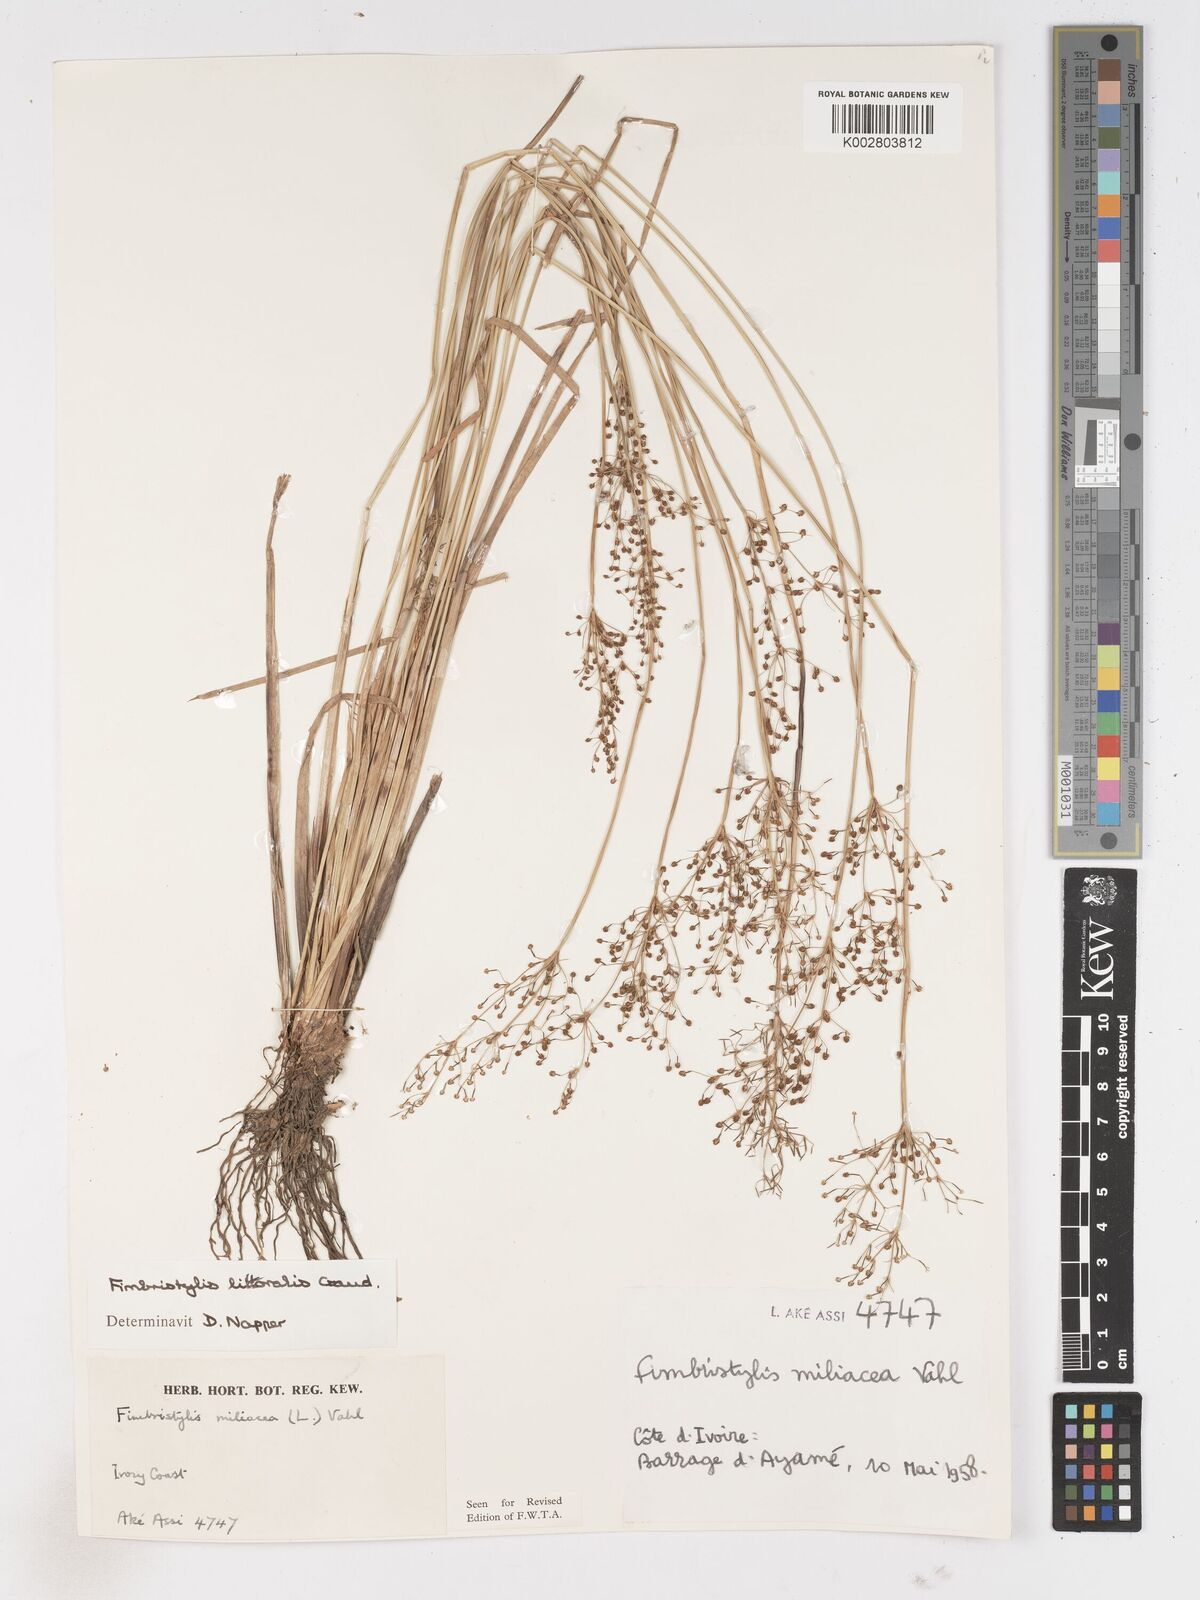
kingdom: Plantae
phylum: Tracheophyta
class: Liliopsida
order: Poales
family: Cyperaceae
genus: Fimbristylis
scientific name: Fimbristylis littoralis
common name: Fimbry
